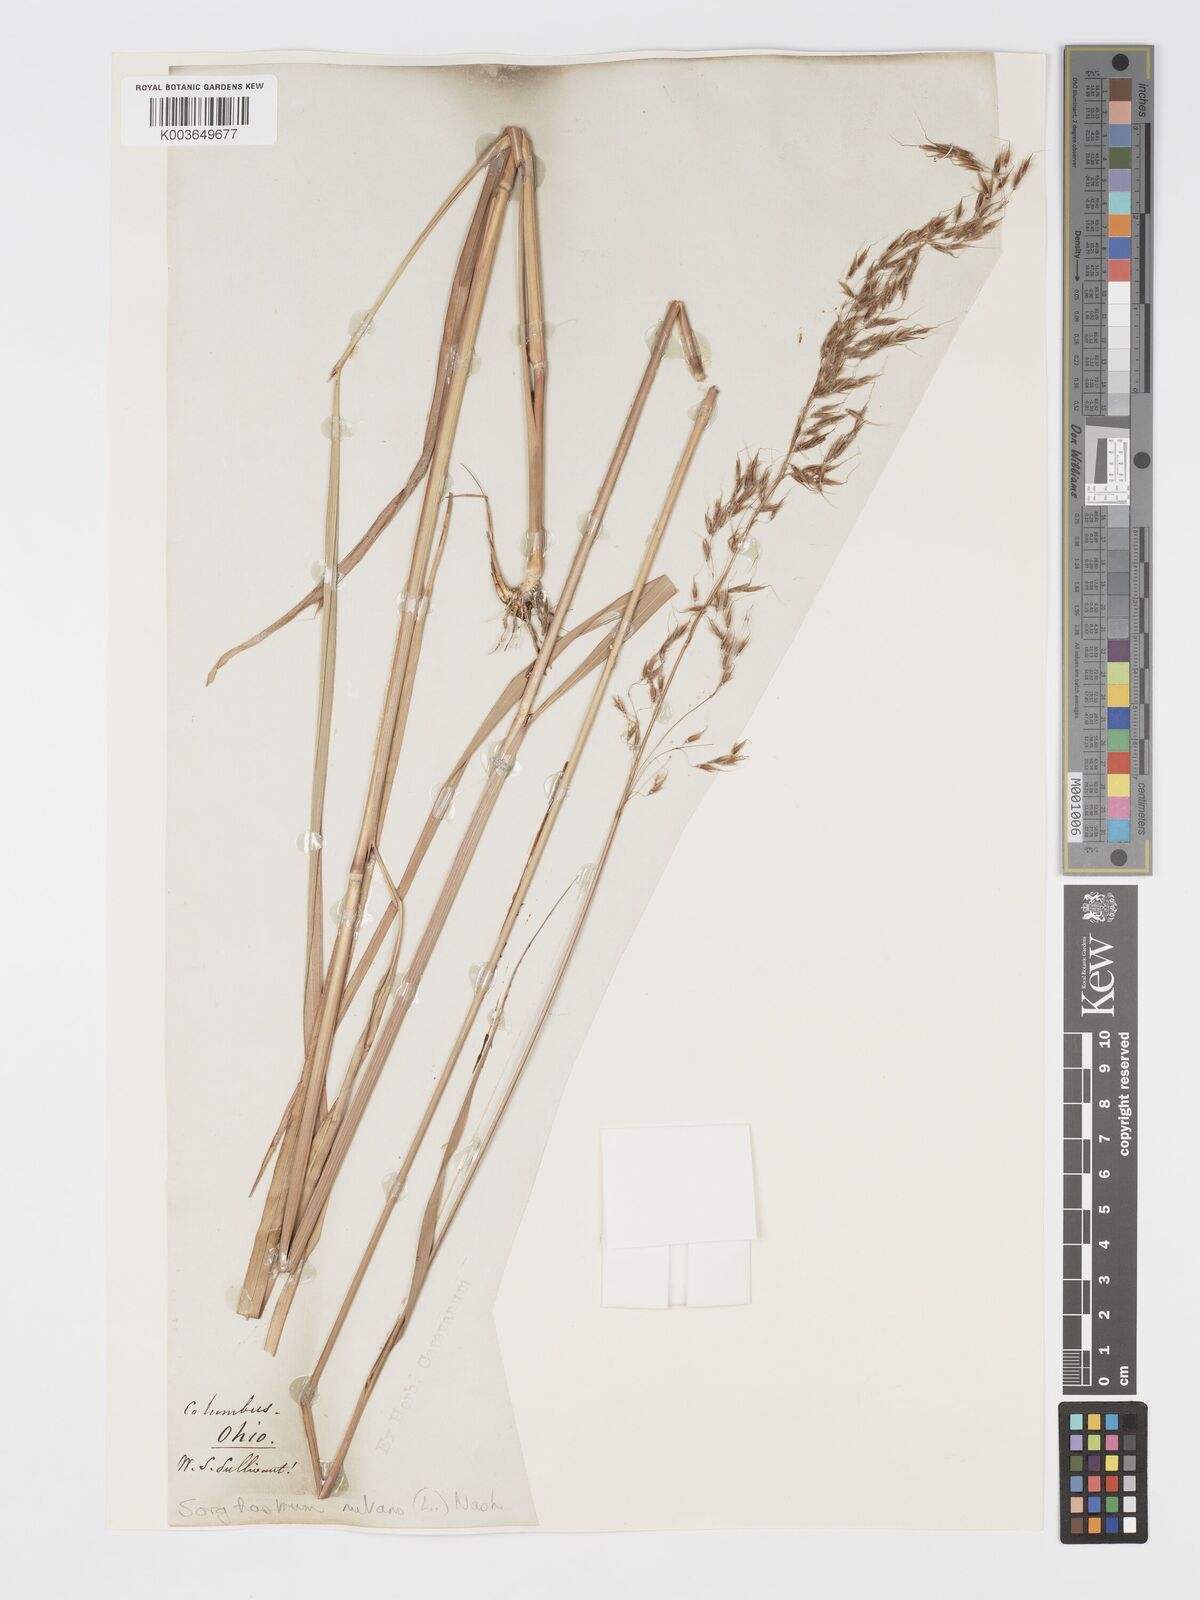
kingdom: Plantae
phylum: Tracheophyta
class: Liliopsida
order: Poales
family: Poaceae
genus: Sorghastrum
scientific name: Sorghastrum nutans
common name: Indian grass
